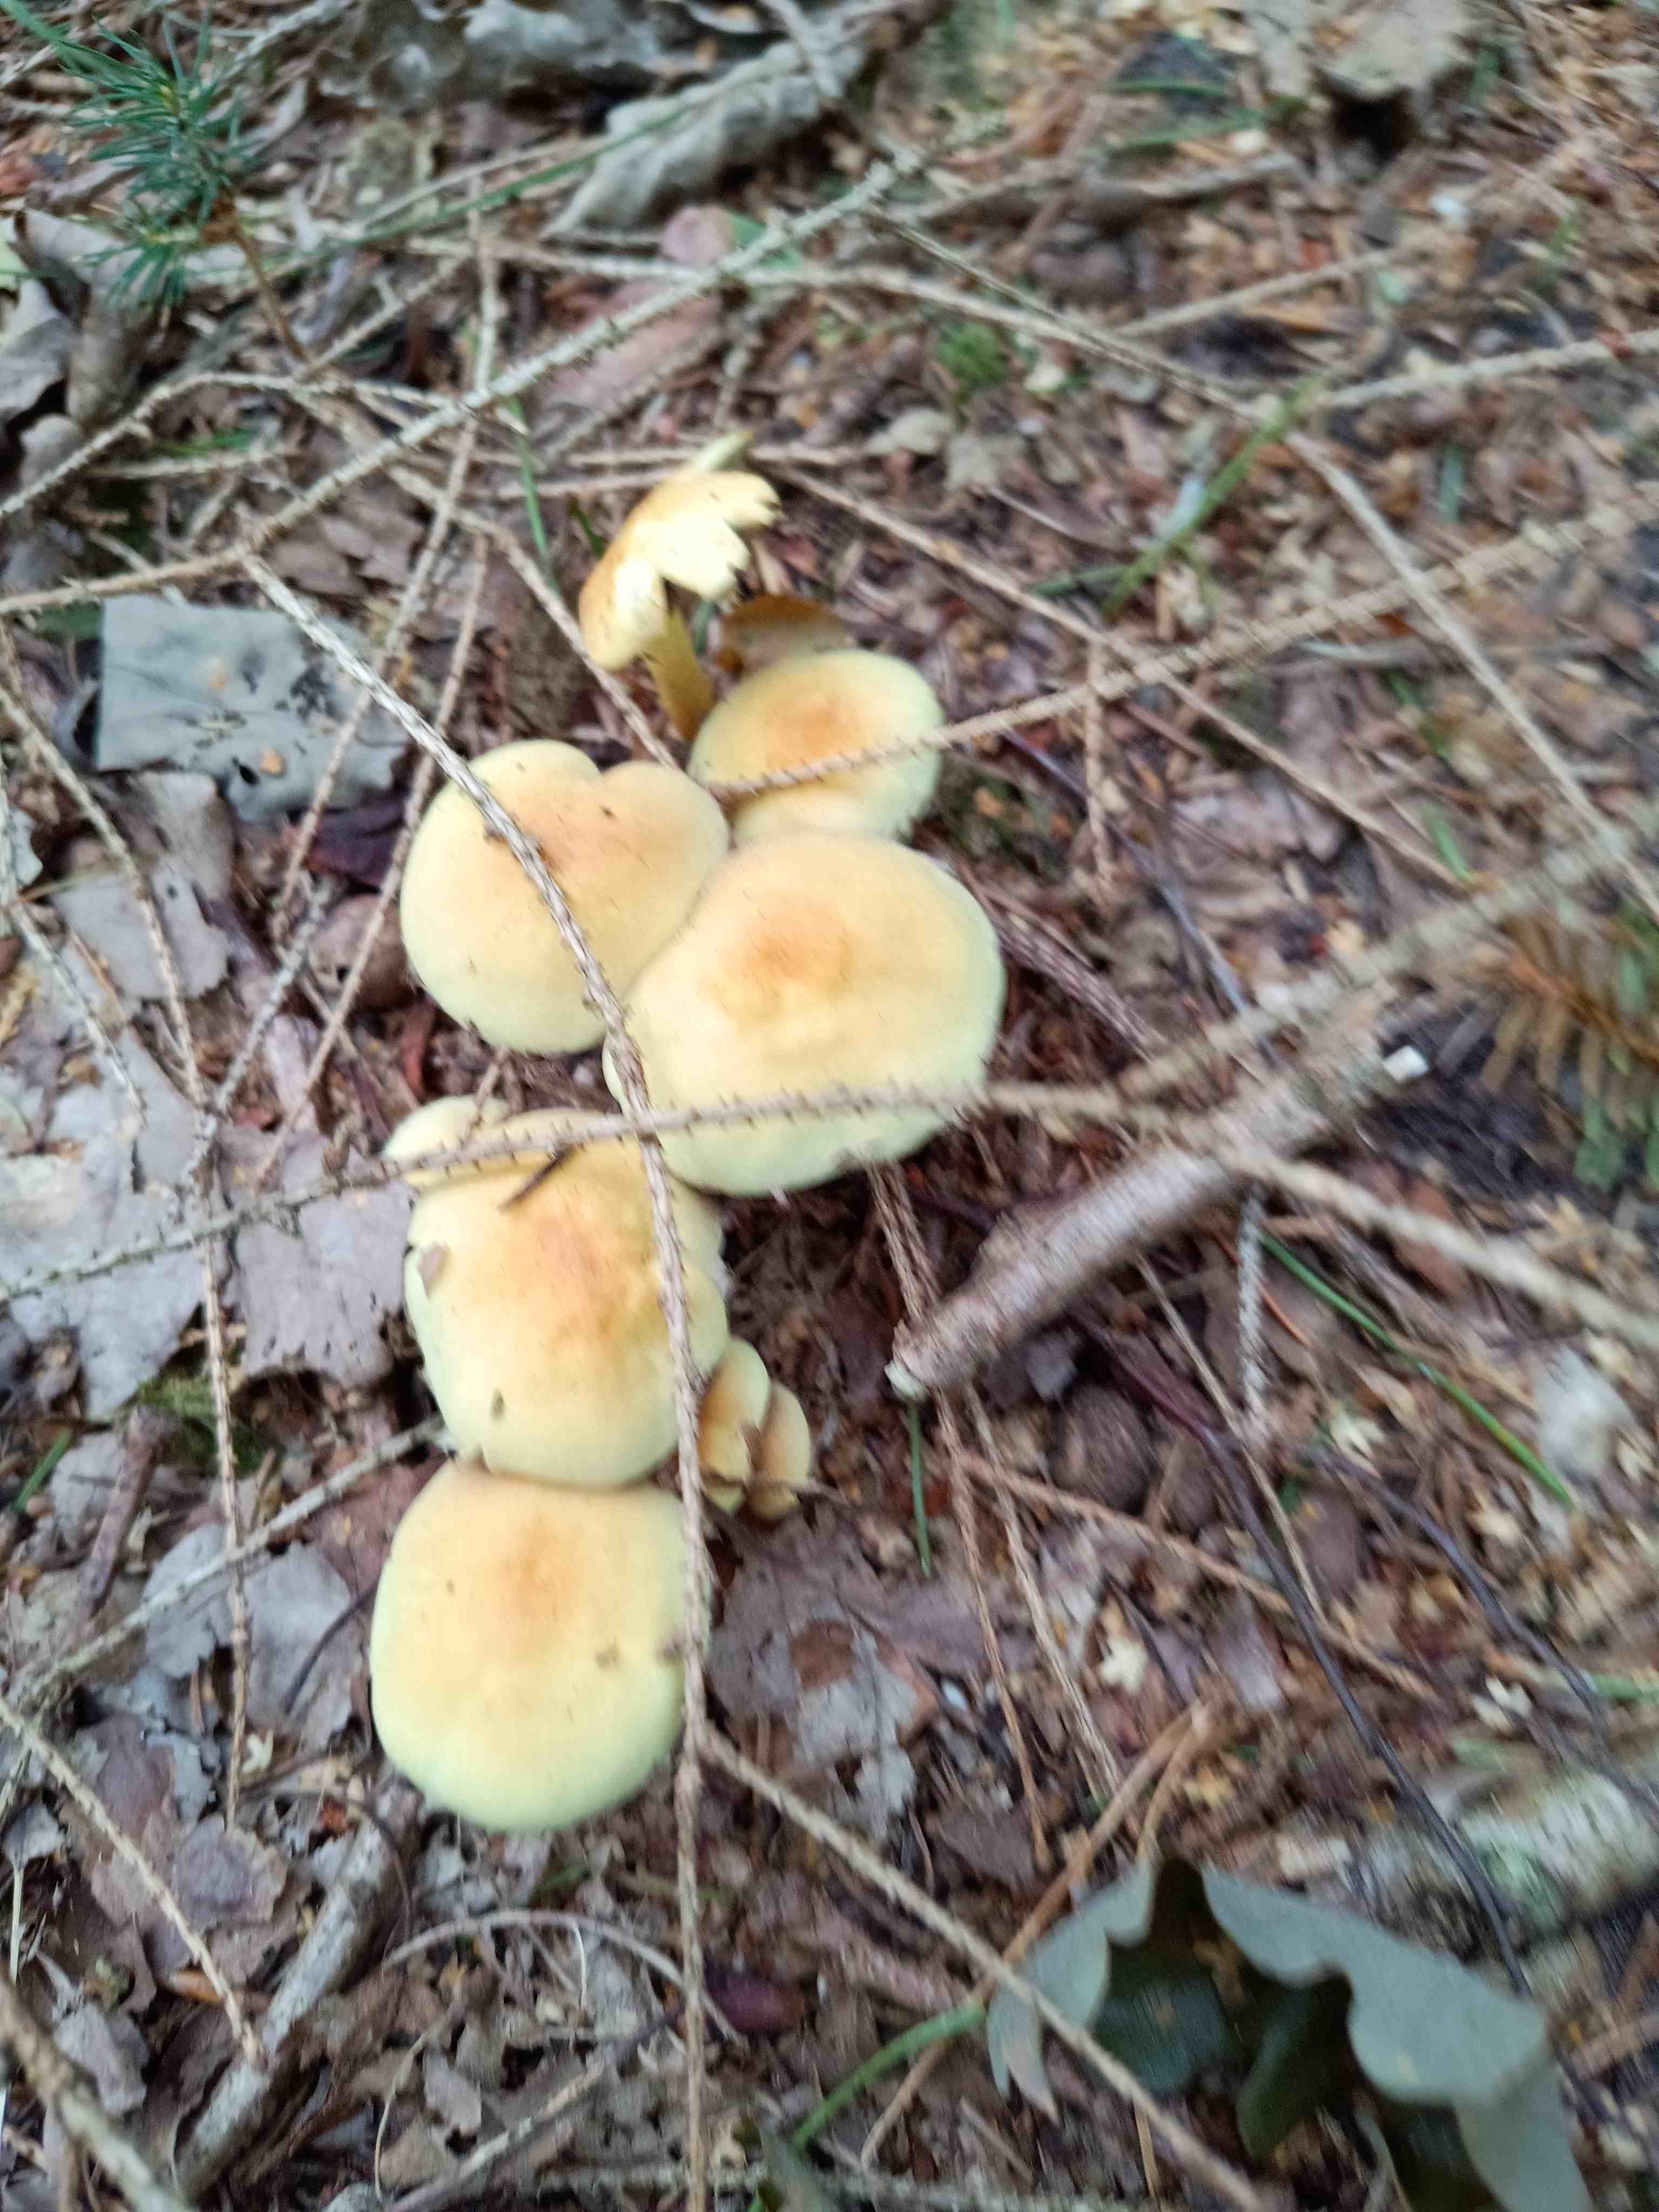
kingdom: Fungi
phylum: Basidiomycota
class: Agaricomycetes
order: Agaricales
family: Strophariaceae
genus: Hypholoma
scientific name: Hypholoma fasciculare
